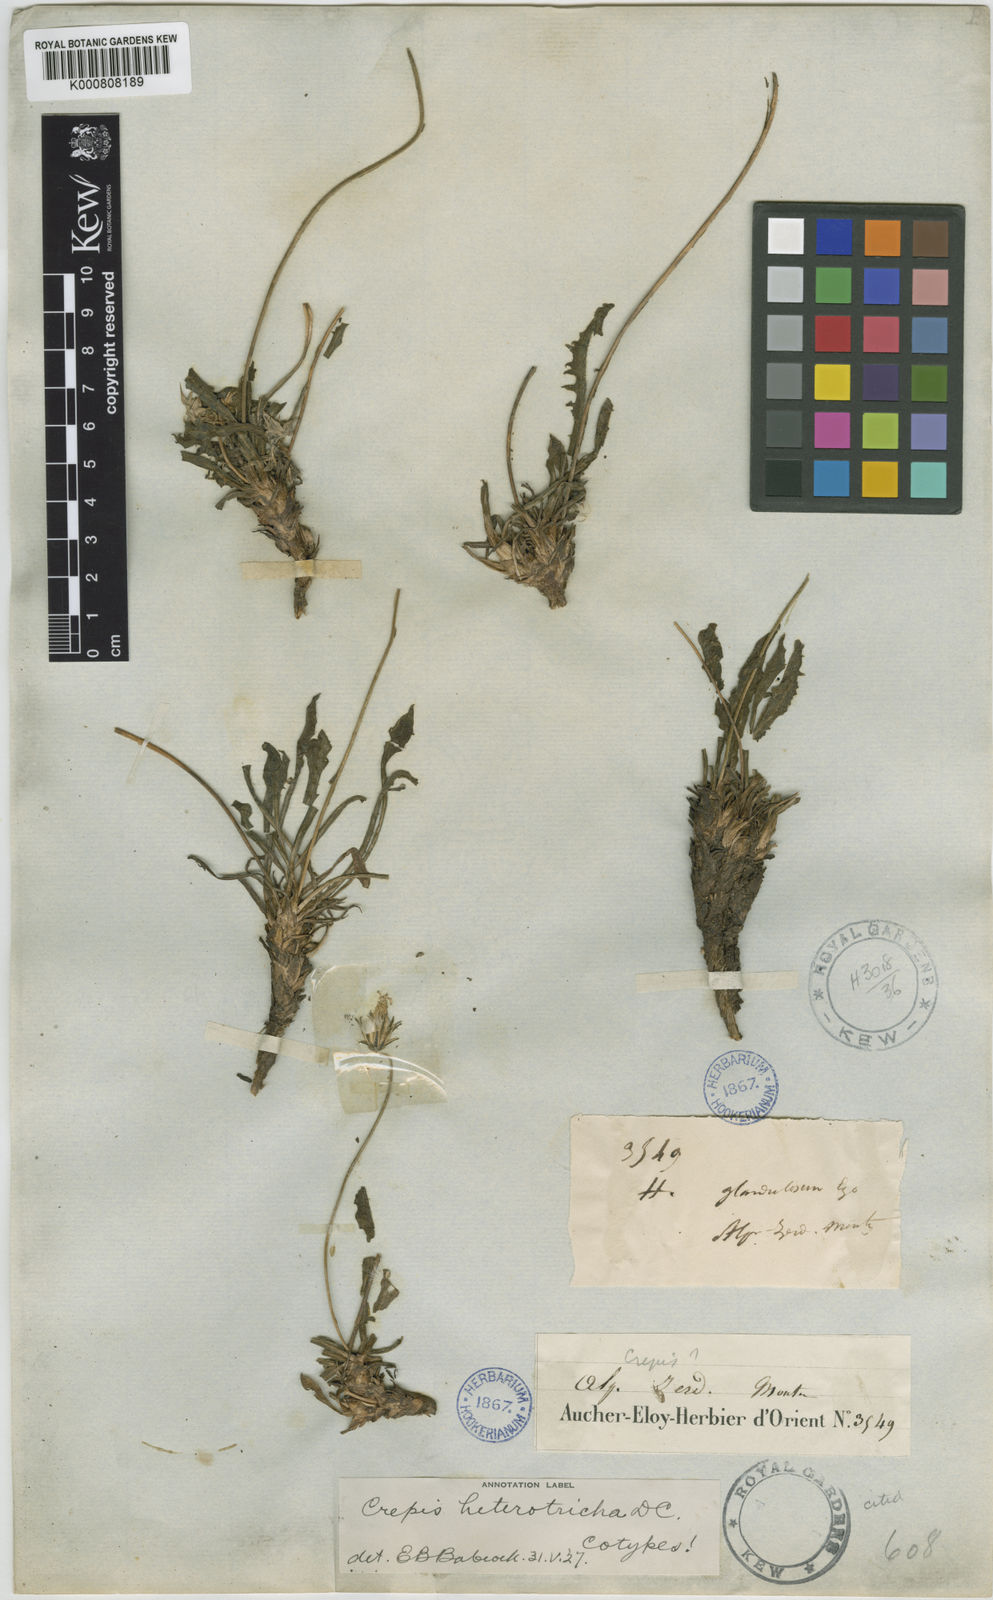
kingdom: Plantae
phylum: Tracheophyta
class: Magnoliopsida
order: Asterales
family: Asteraceae
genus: Crepis
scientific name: Crepis heterotricha
